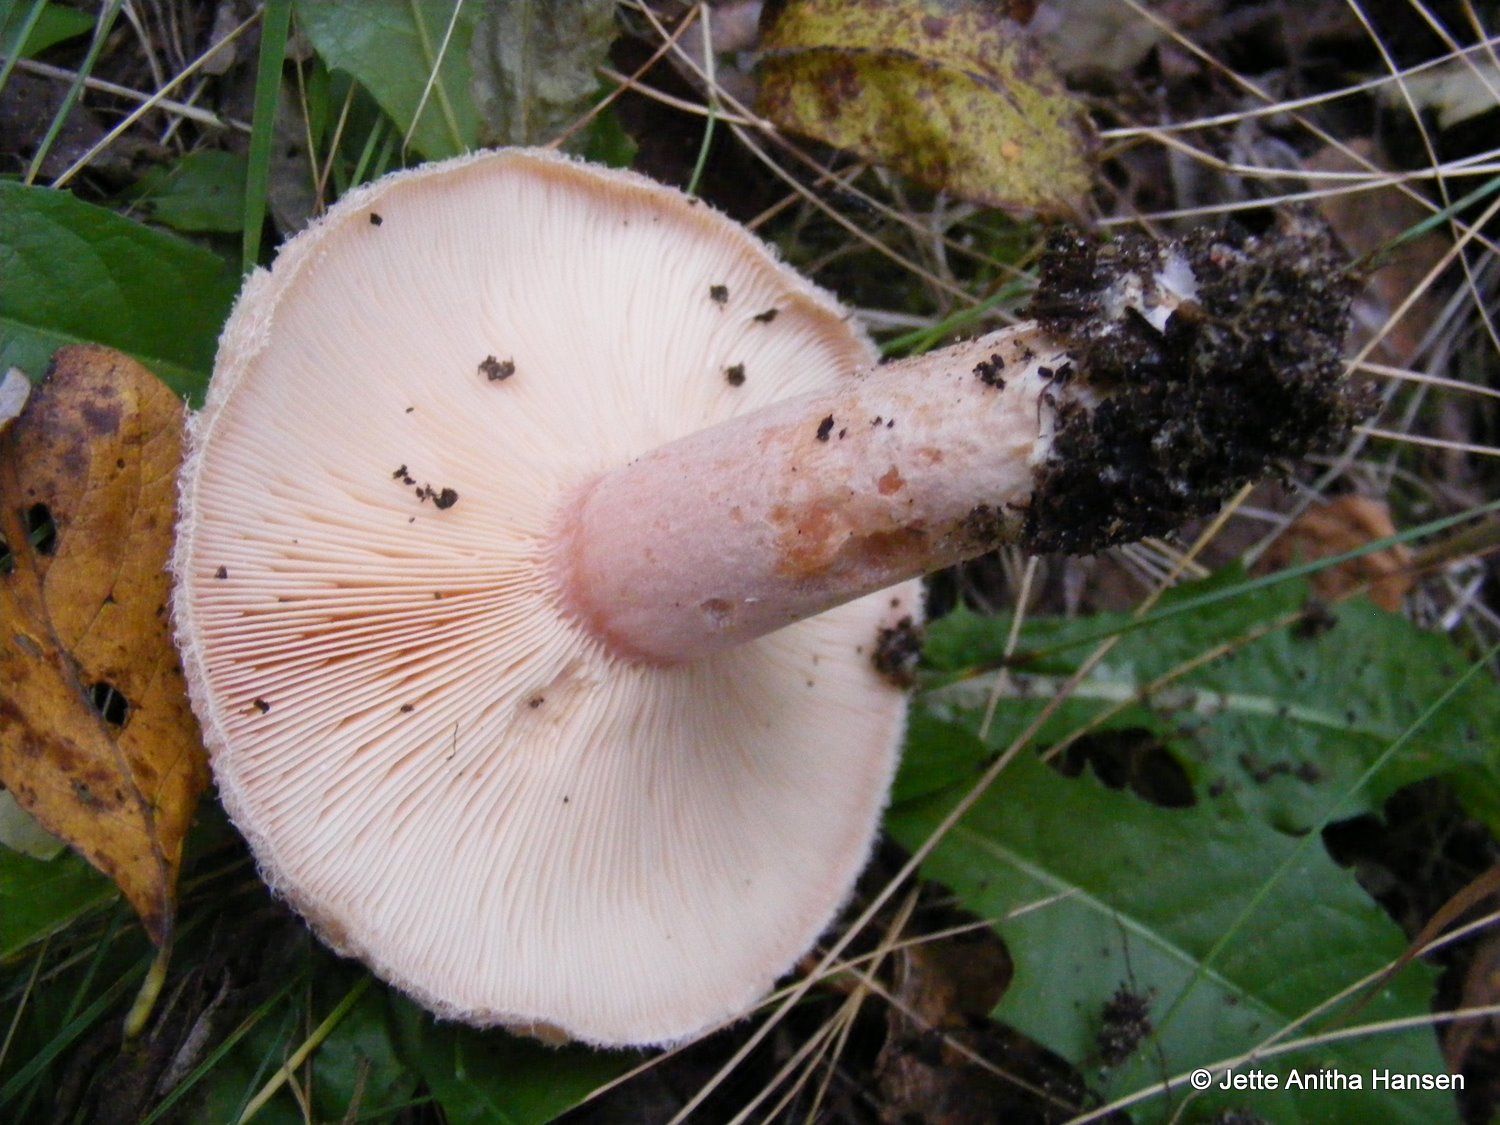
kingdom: Fungi
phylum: Basidiomycota
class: Agaricomycetes
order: Russulales
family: Russulaceae
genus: Lactarius
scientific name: Lactarius pubescens
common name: dunet mælkehat
